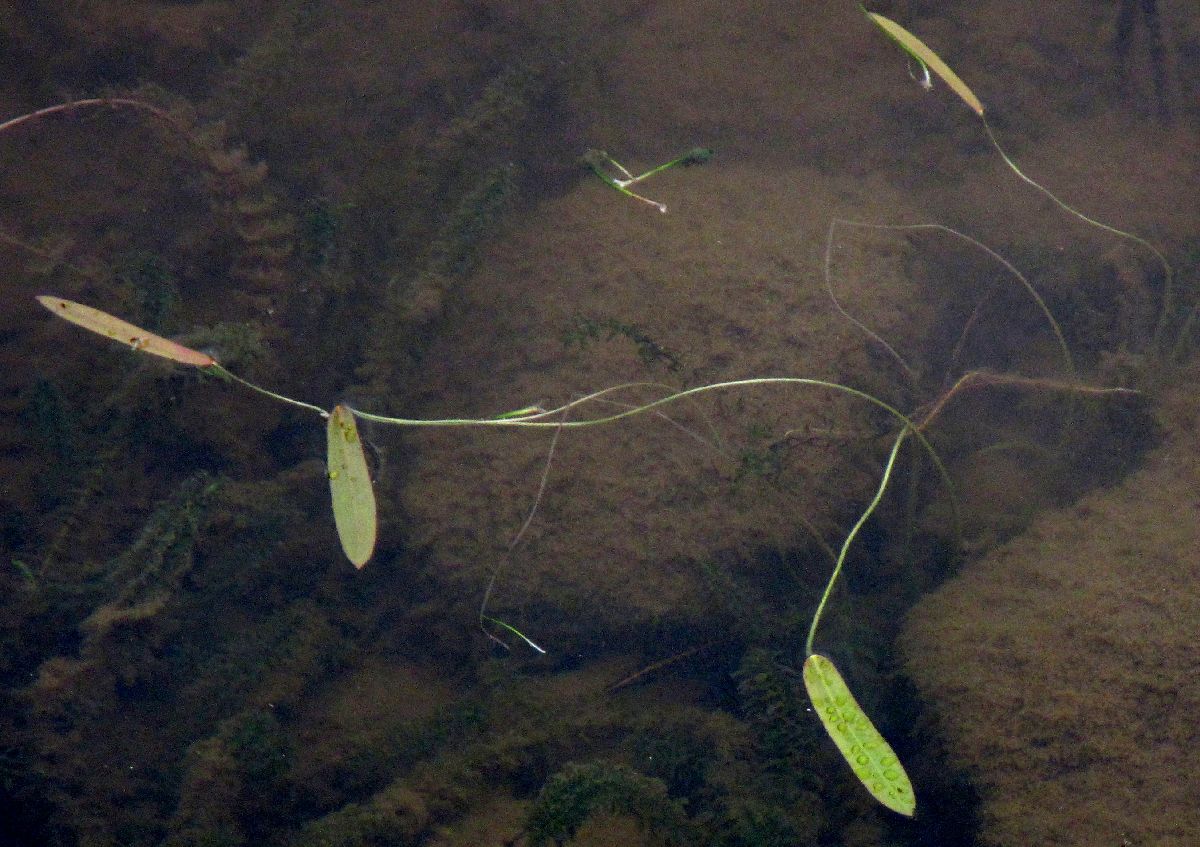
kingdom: Plantae
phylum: Tracheophyta
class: Liliopsida
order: Alismatales
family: Alismataceae
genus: Sagittaria
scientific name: Sagittaria natans
